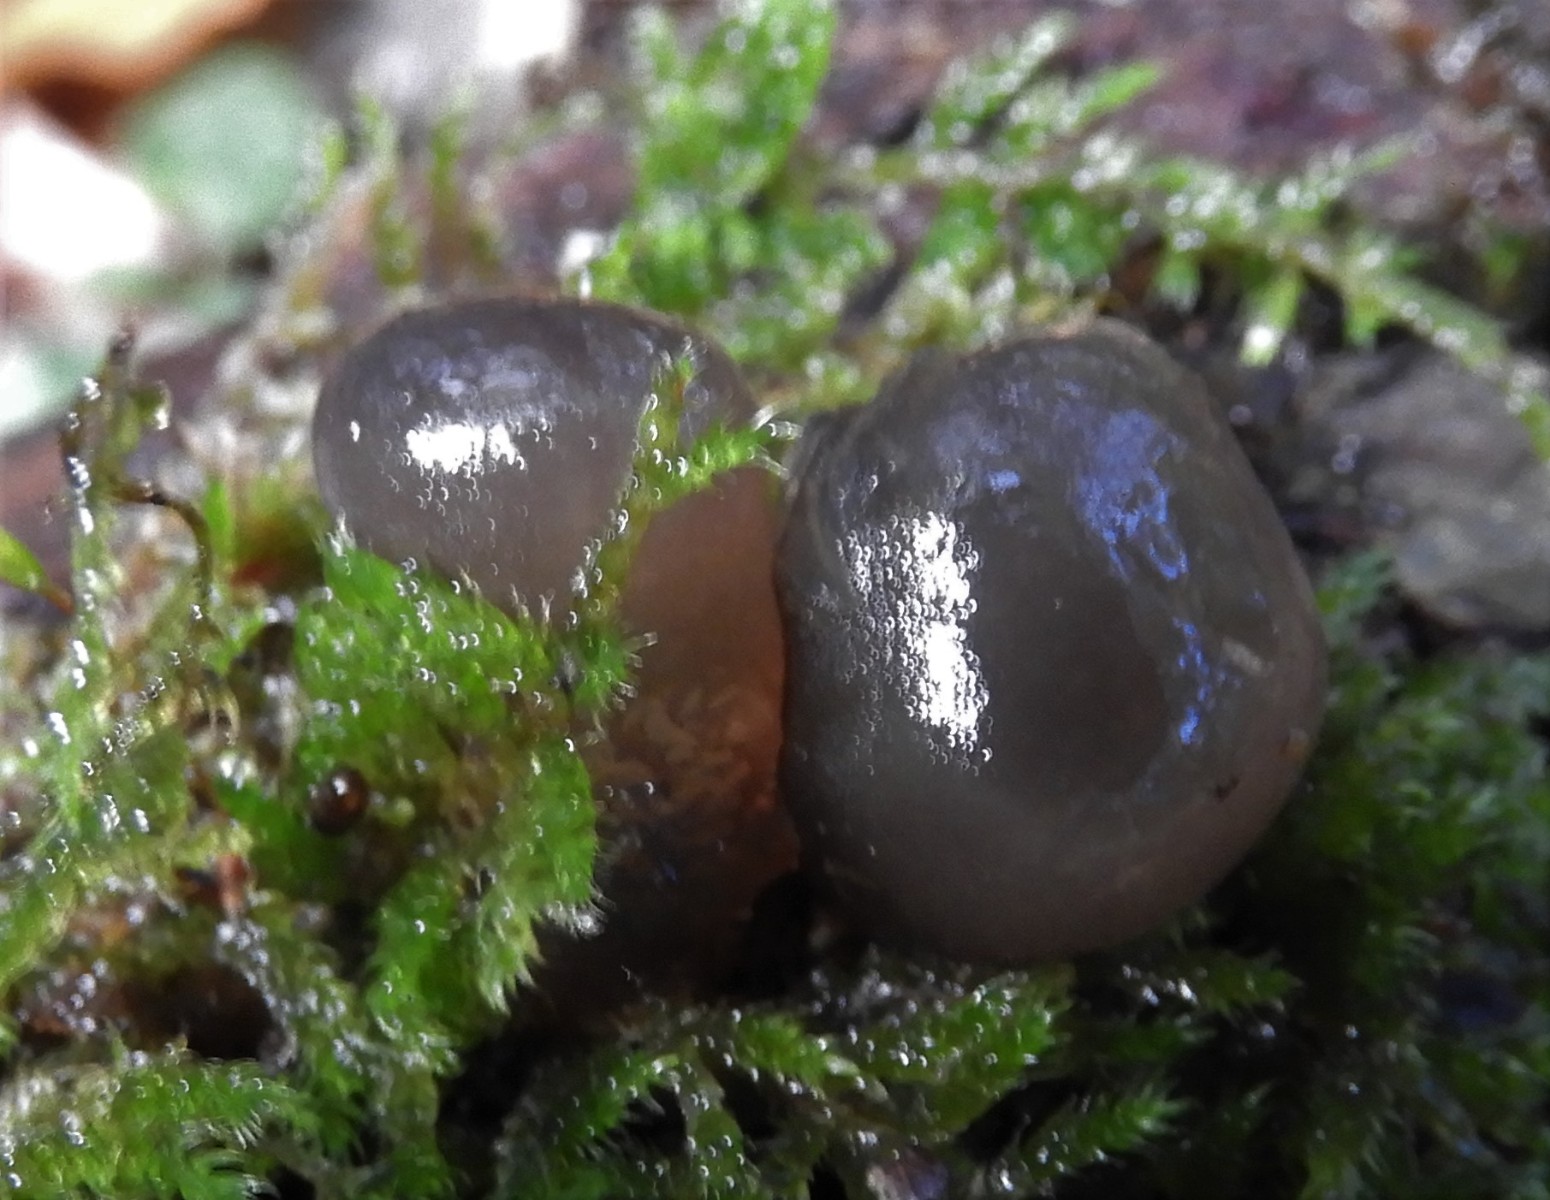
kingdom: Fungi
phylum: Basidiomycota
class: Agaricomycetes
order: Auriculariales
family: Auriculariaceae
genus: Exidia
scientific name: Exidia glandulosa
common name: ege-bævretop
